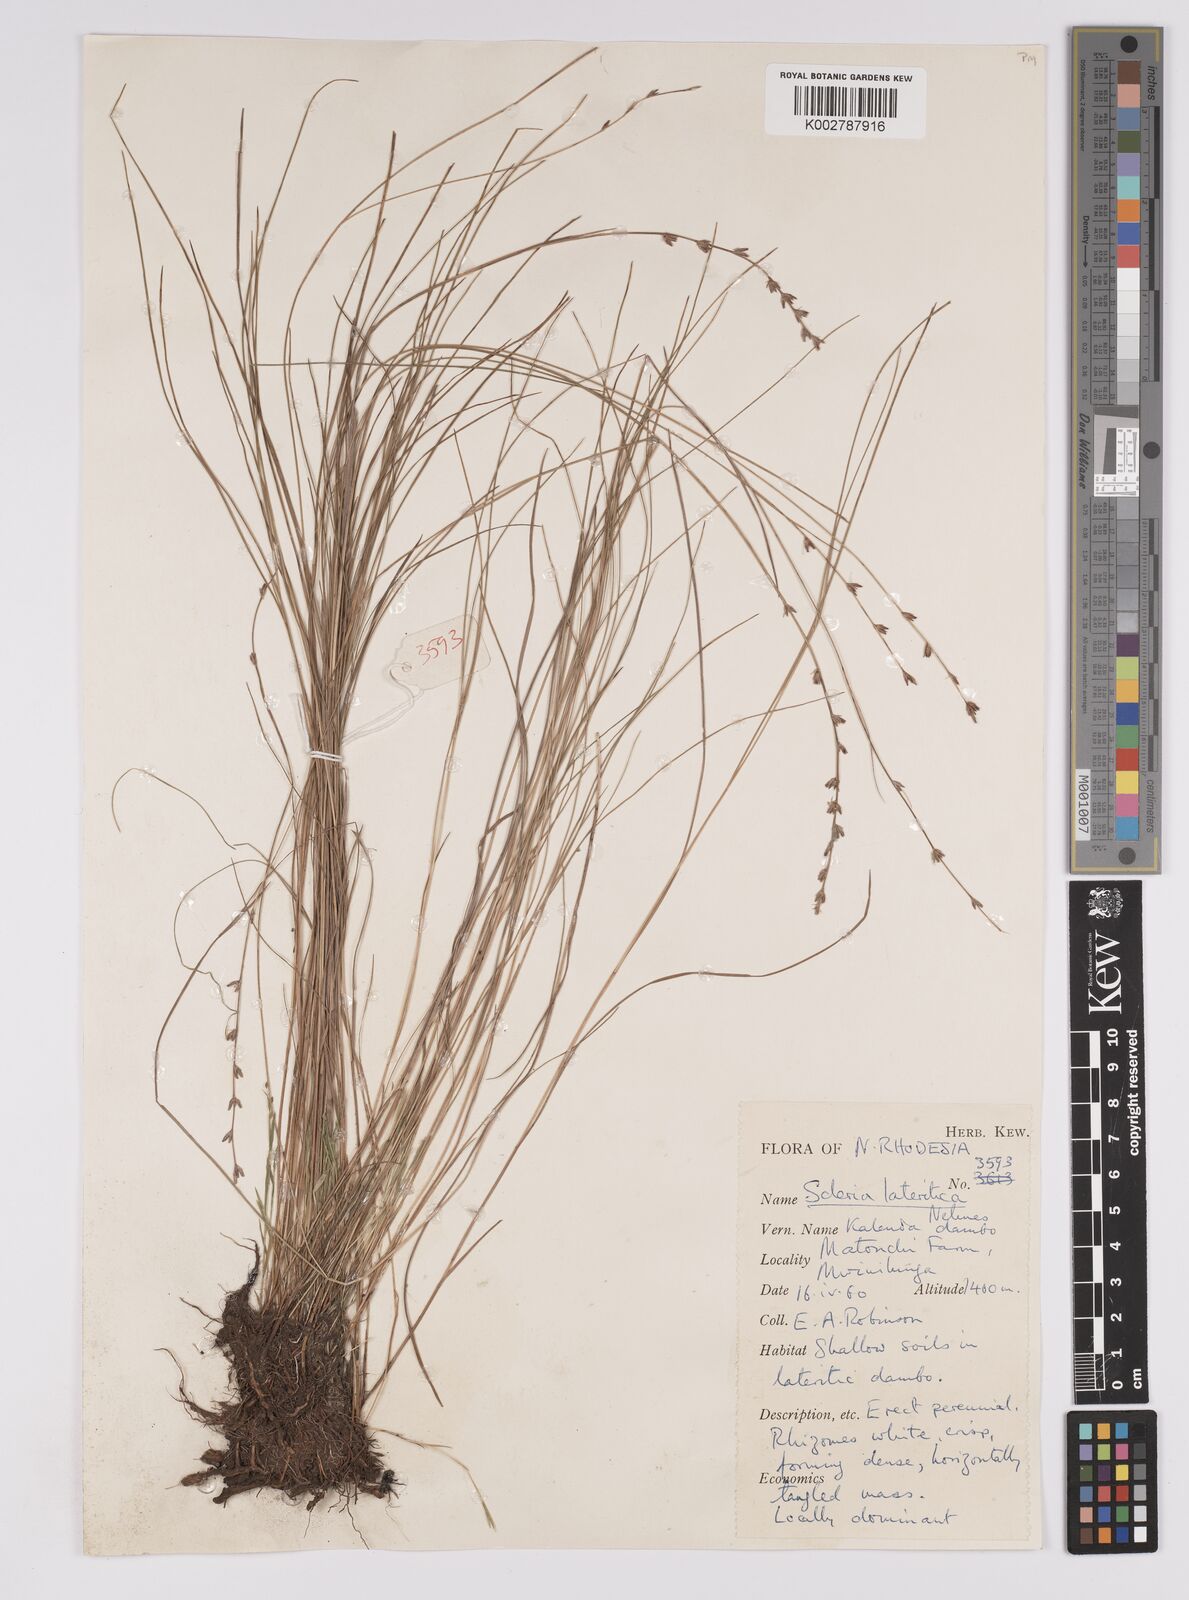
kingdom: Plantae
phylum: Tracheophyta
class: Liliopsida
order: Poales
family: Cyperaceae
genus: Scleria
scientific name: Scleria lateritica
